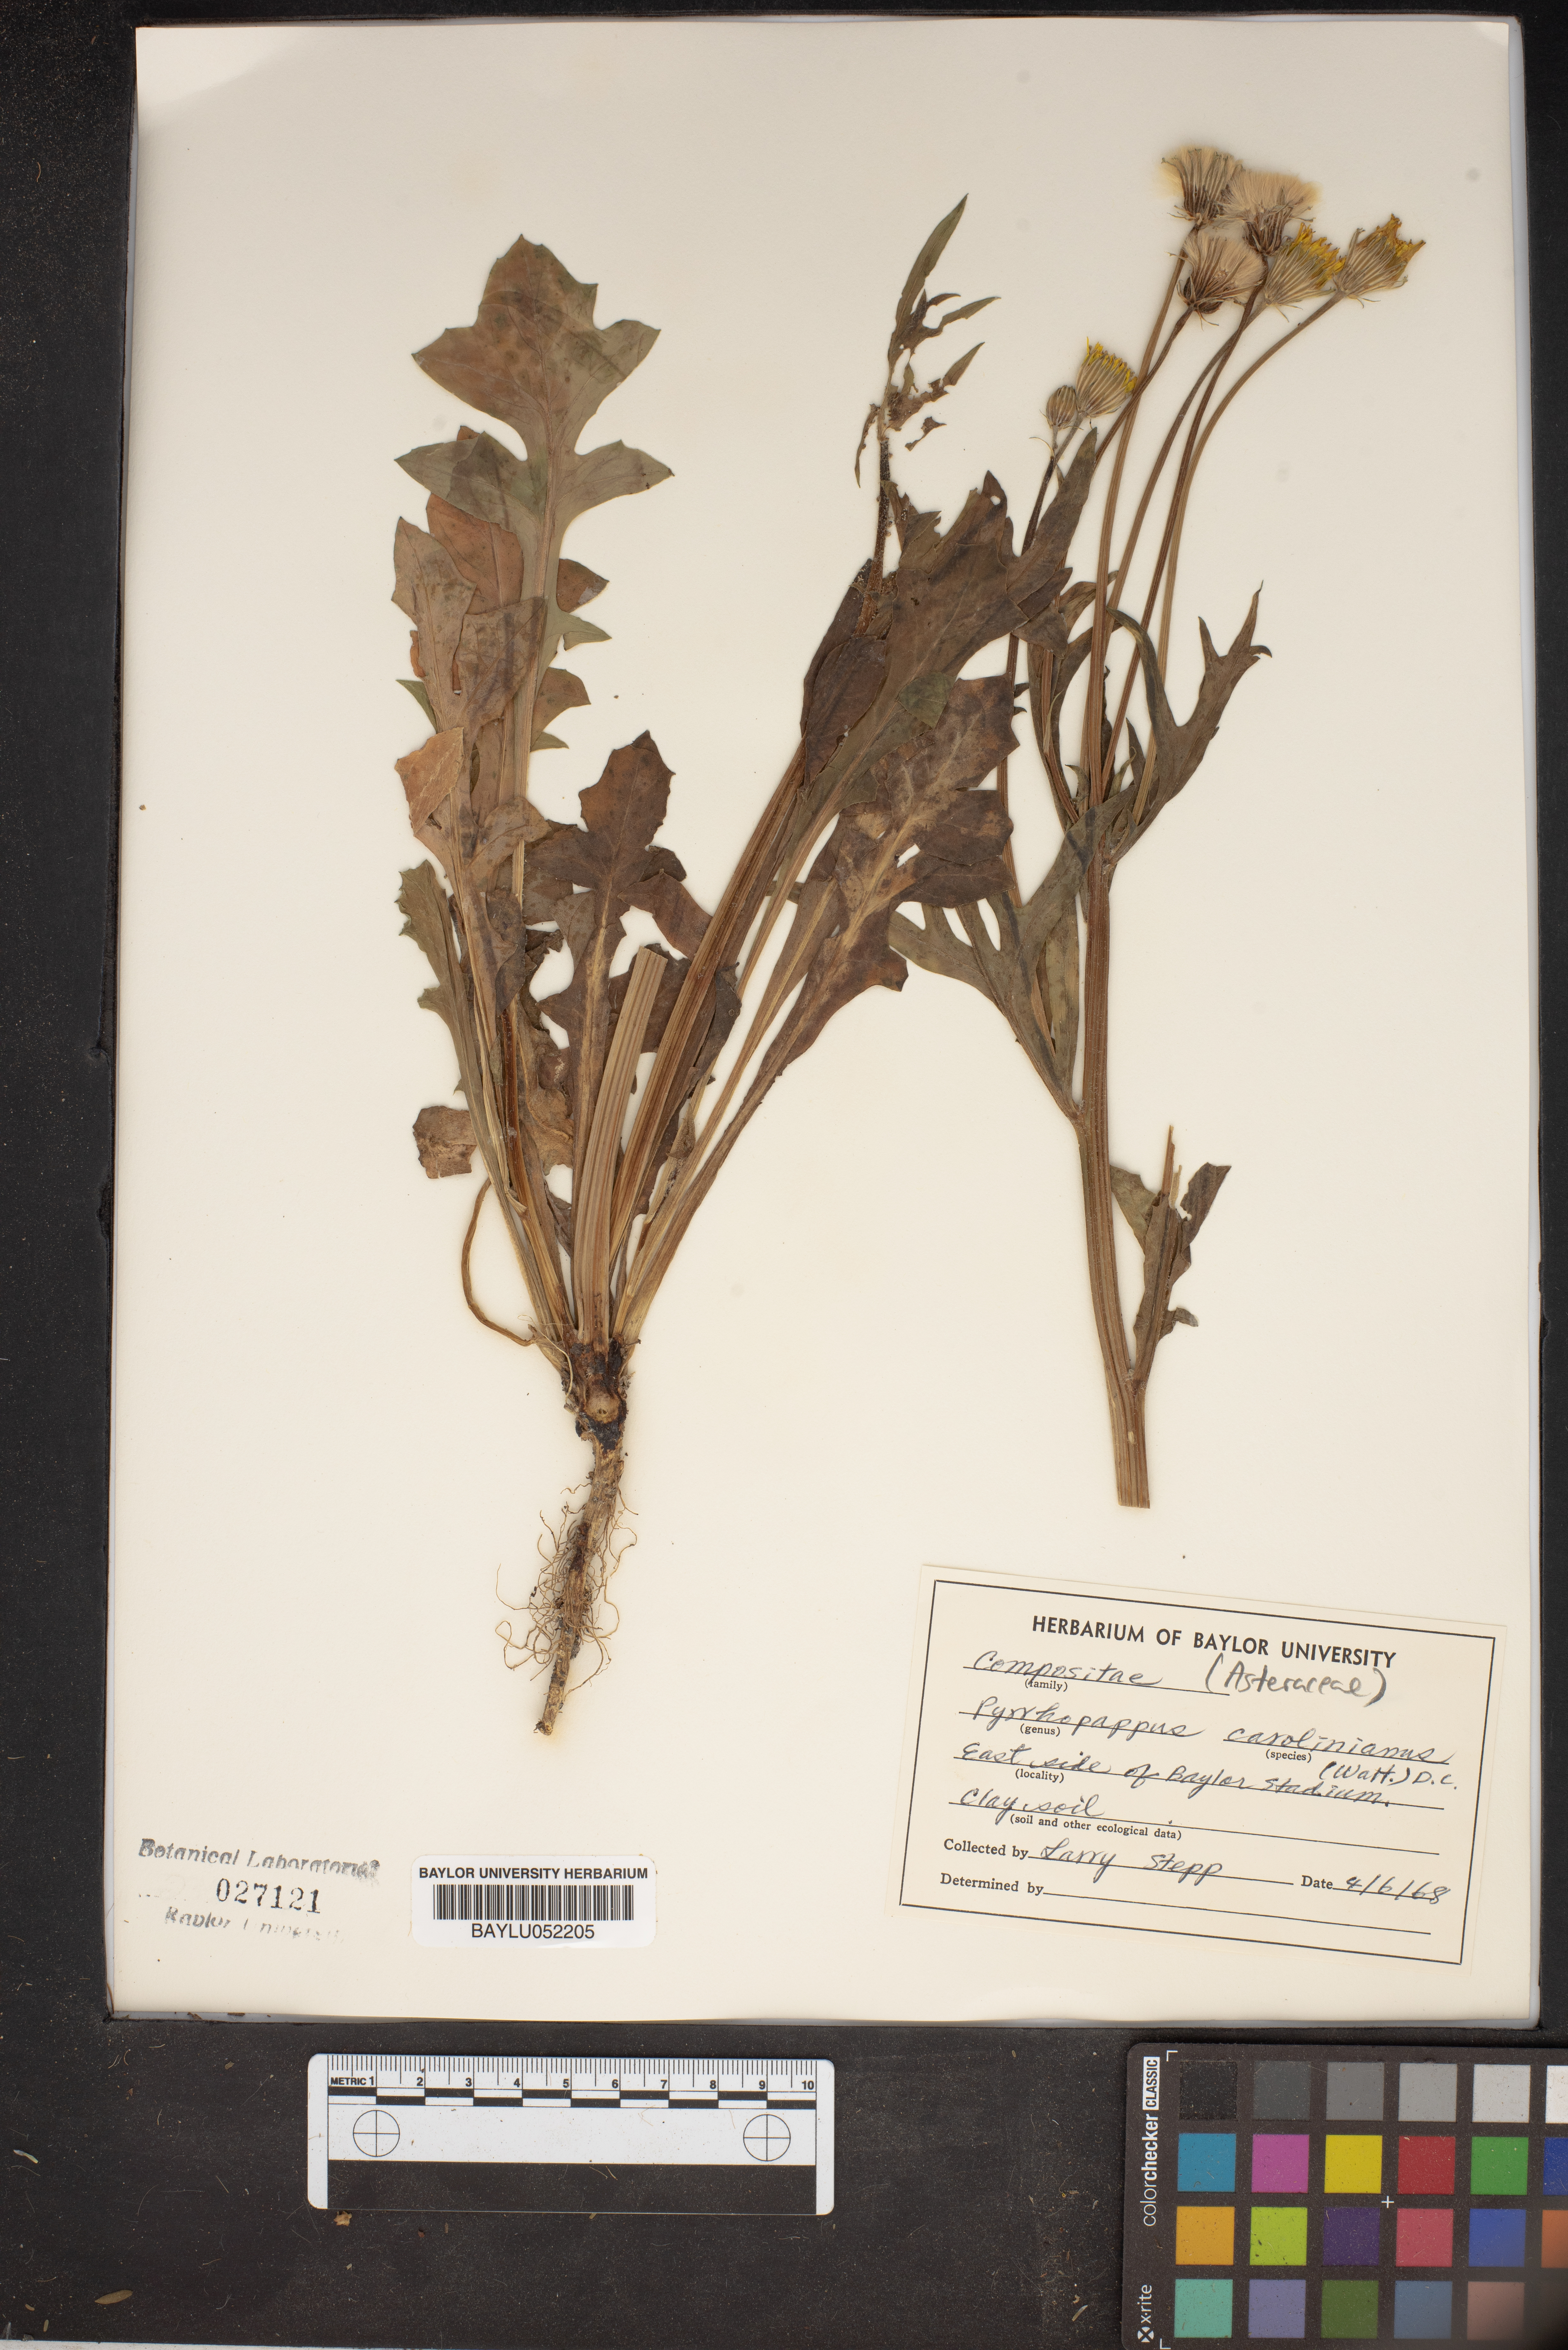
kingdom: Plantae
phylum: Tracheophyta
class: Magnoliopsida
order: Asterales
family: Asteraceae
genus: Pyrrhopappus
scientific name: Pyrrhopappus carolinianus
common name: Carolina desert-chicory
